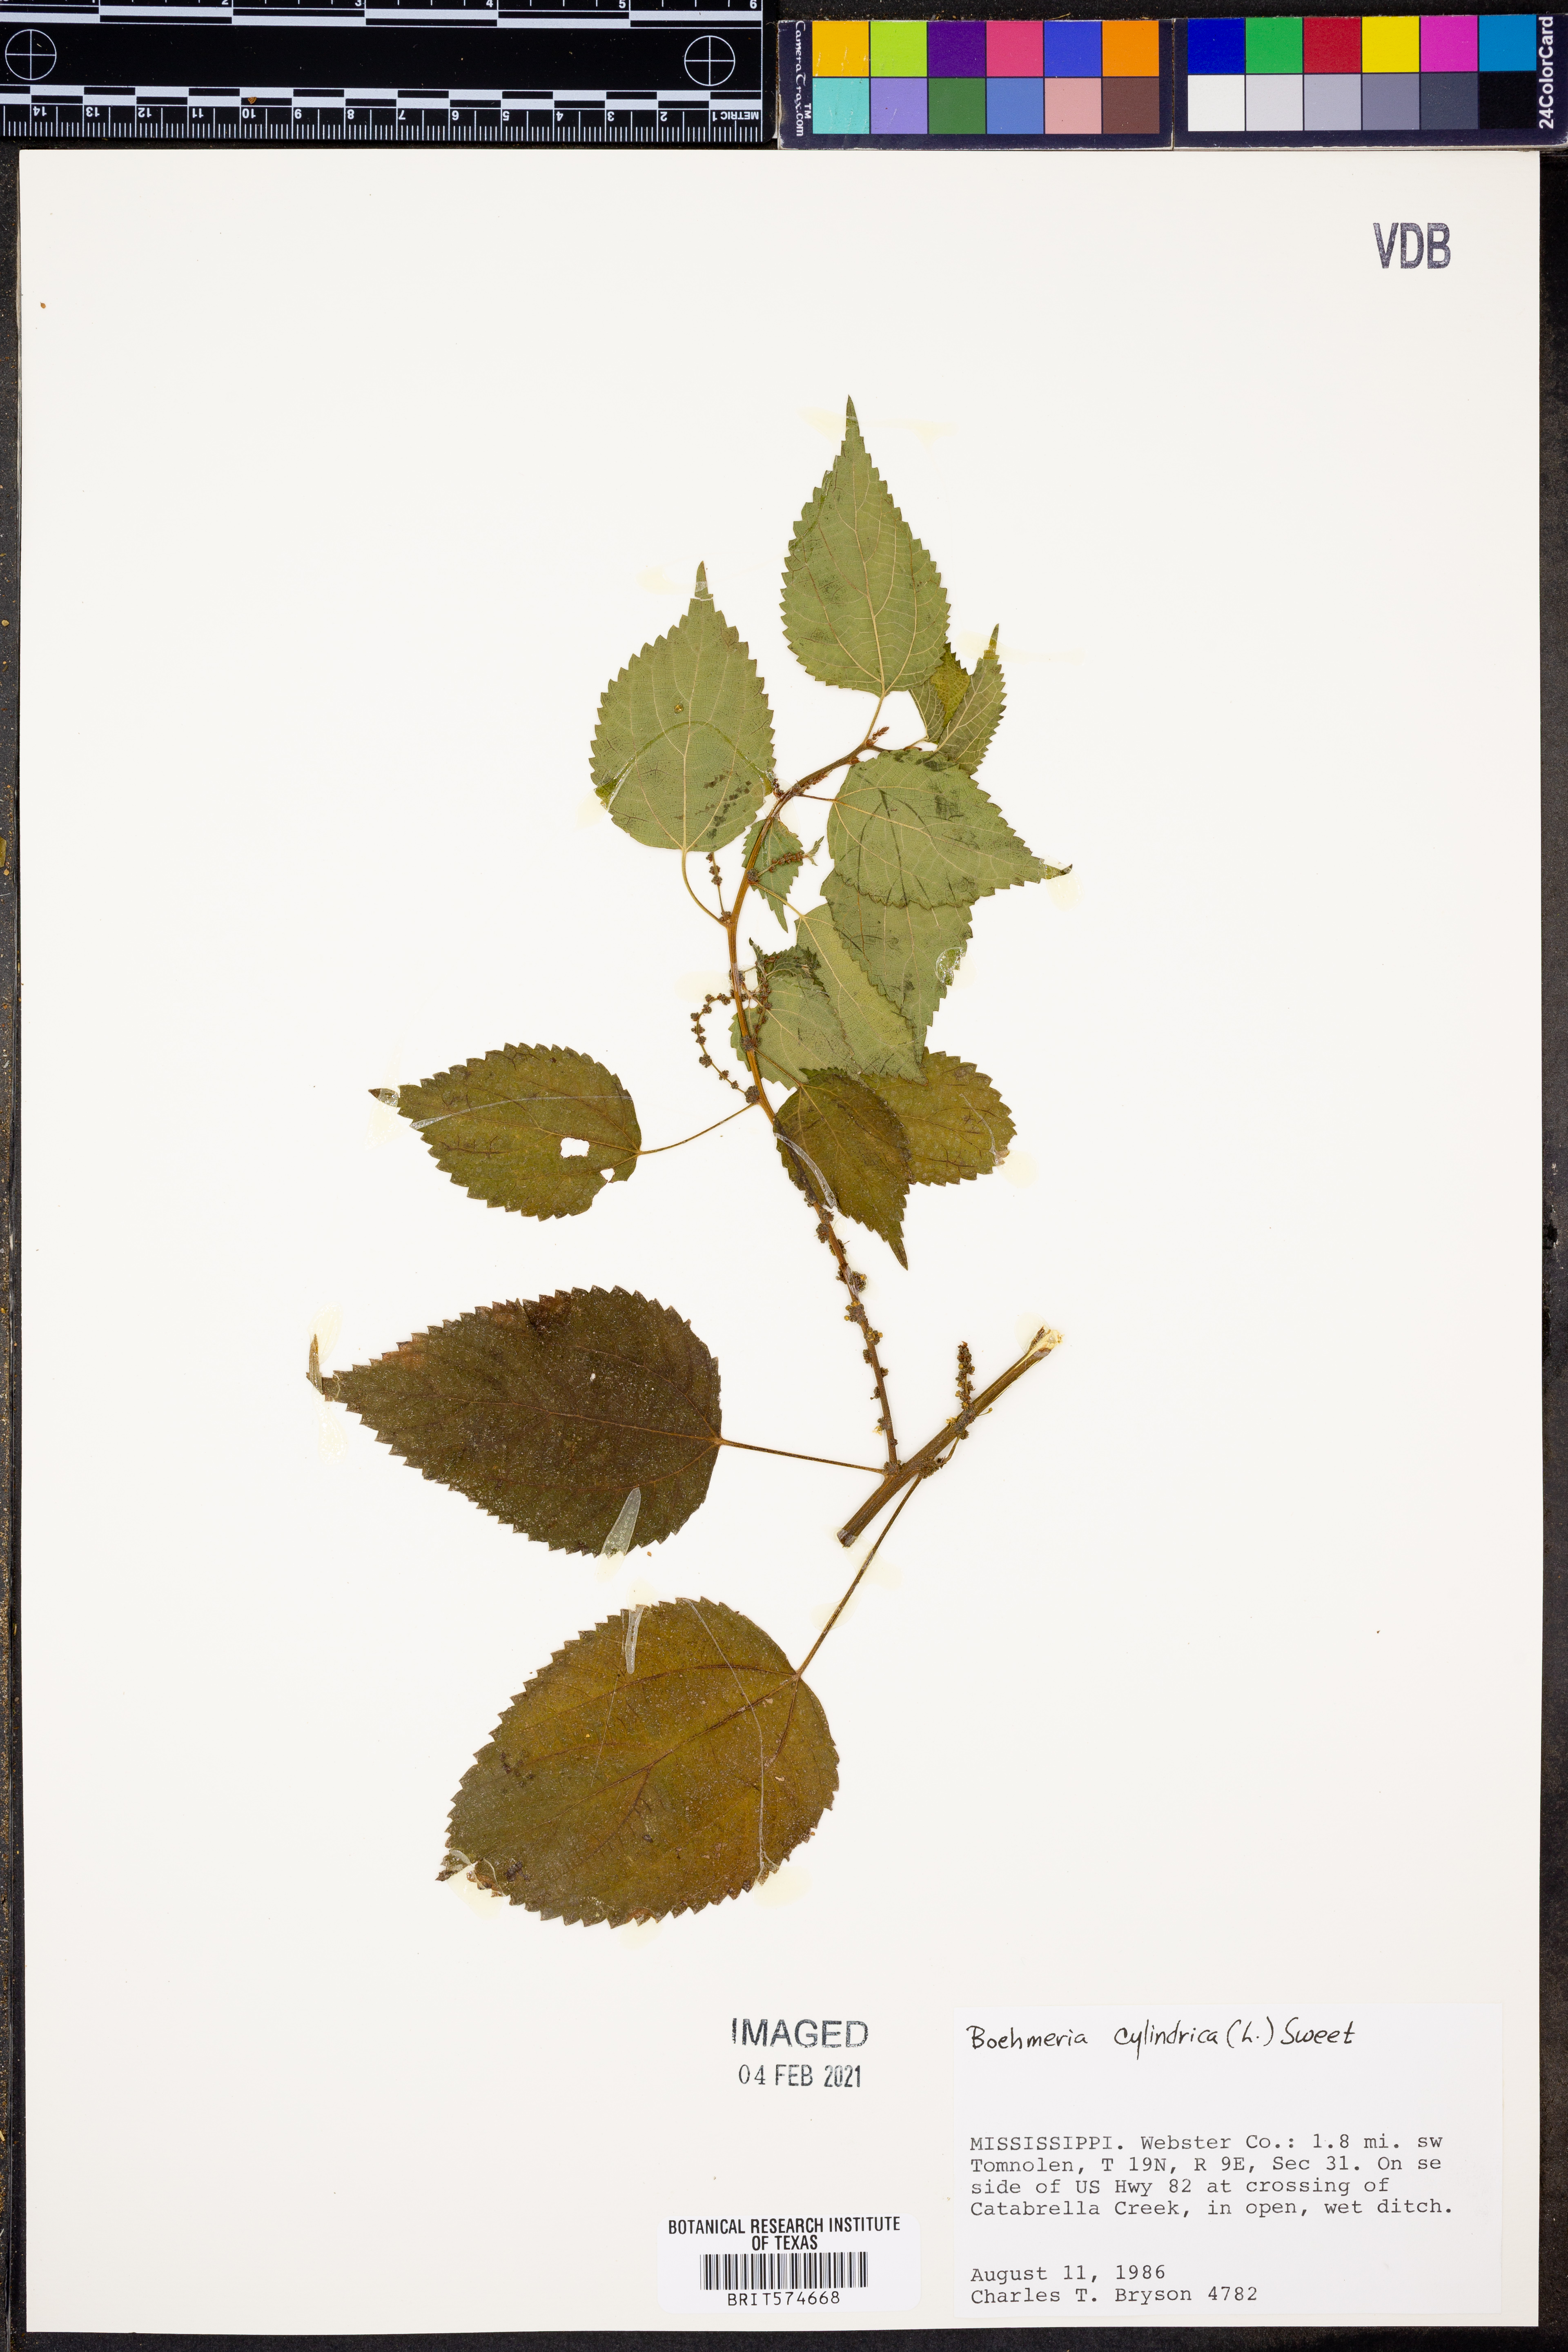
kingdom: Plantae
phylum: Tracheophyta
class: Magnoliopsida
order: Rosales
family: Urticaceae
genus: Boehmeria
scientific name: Boehmeria cylindrica
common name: Bog-hemp
